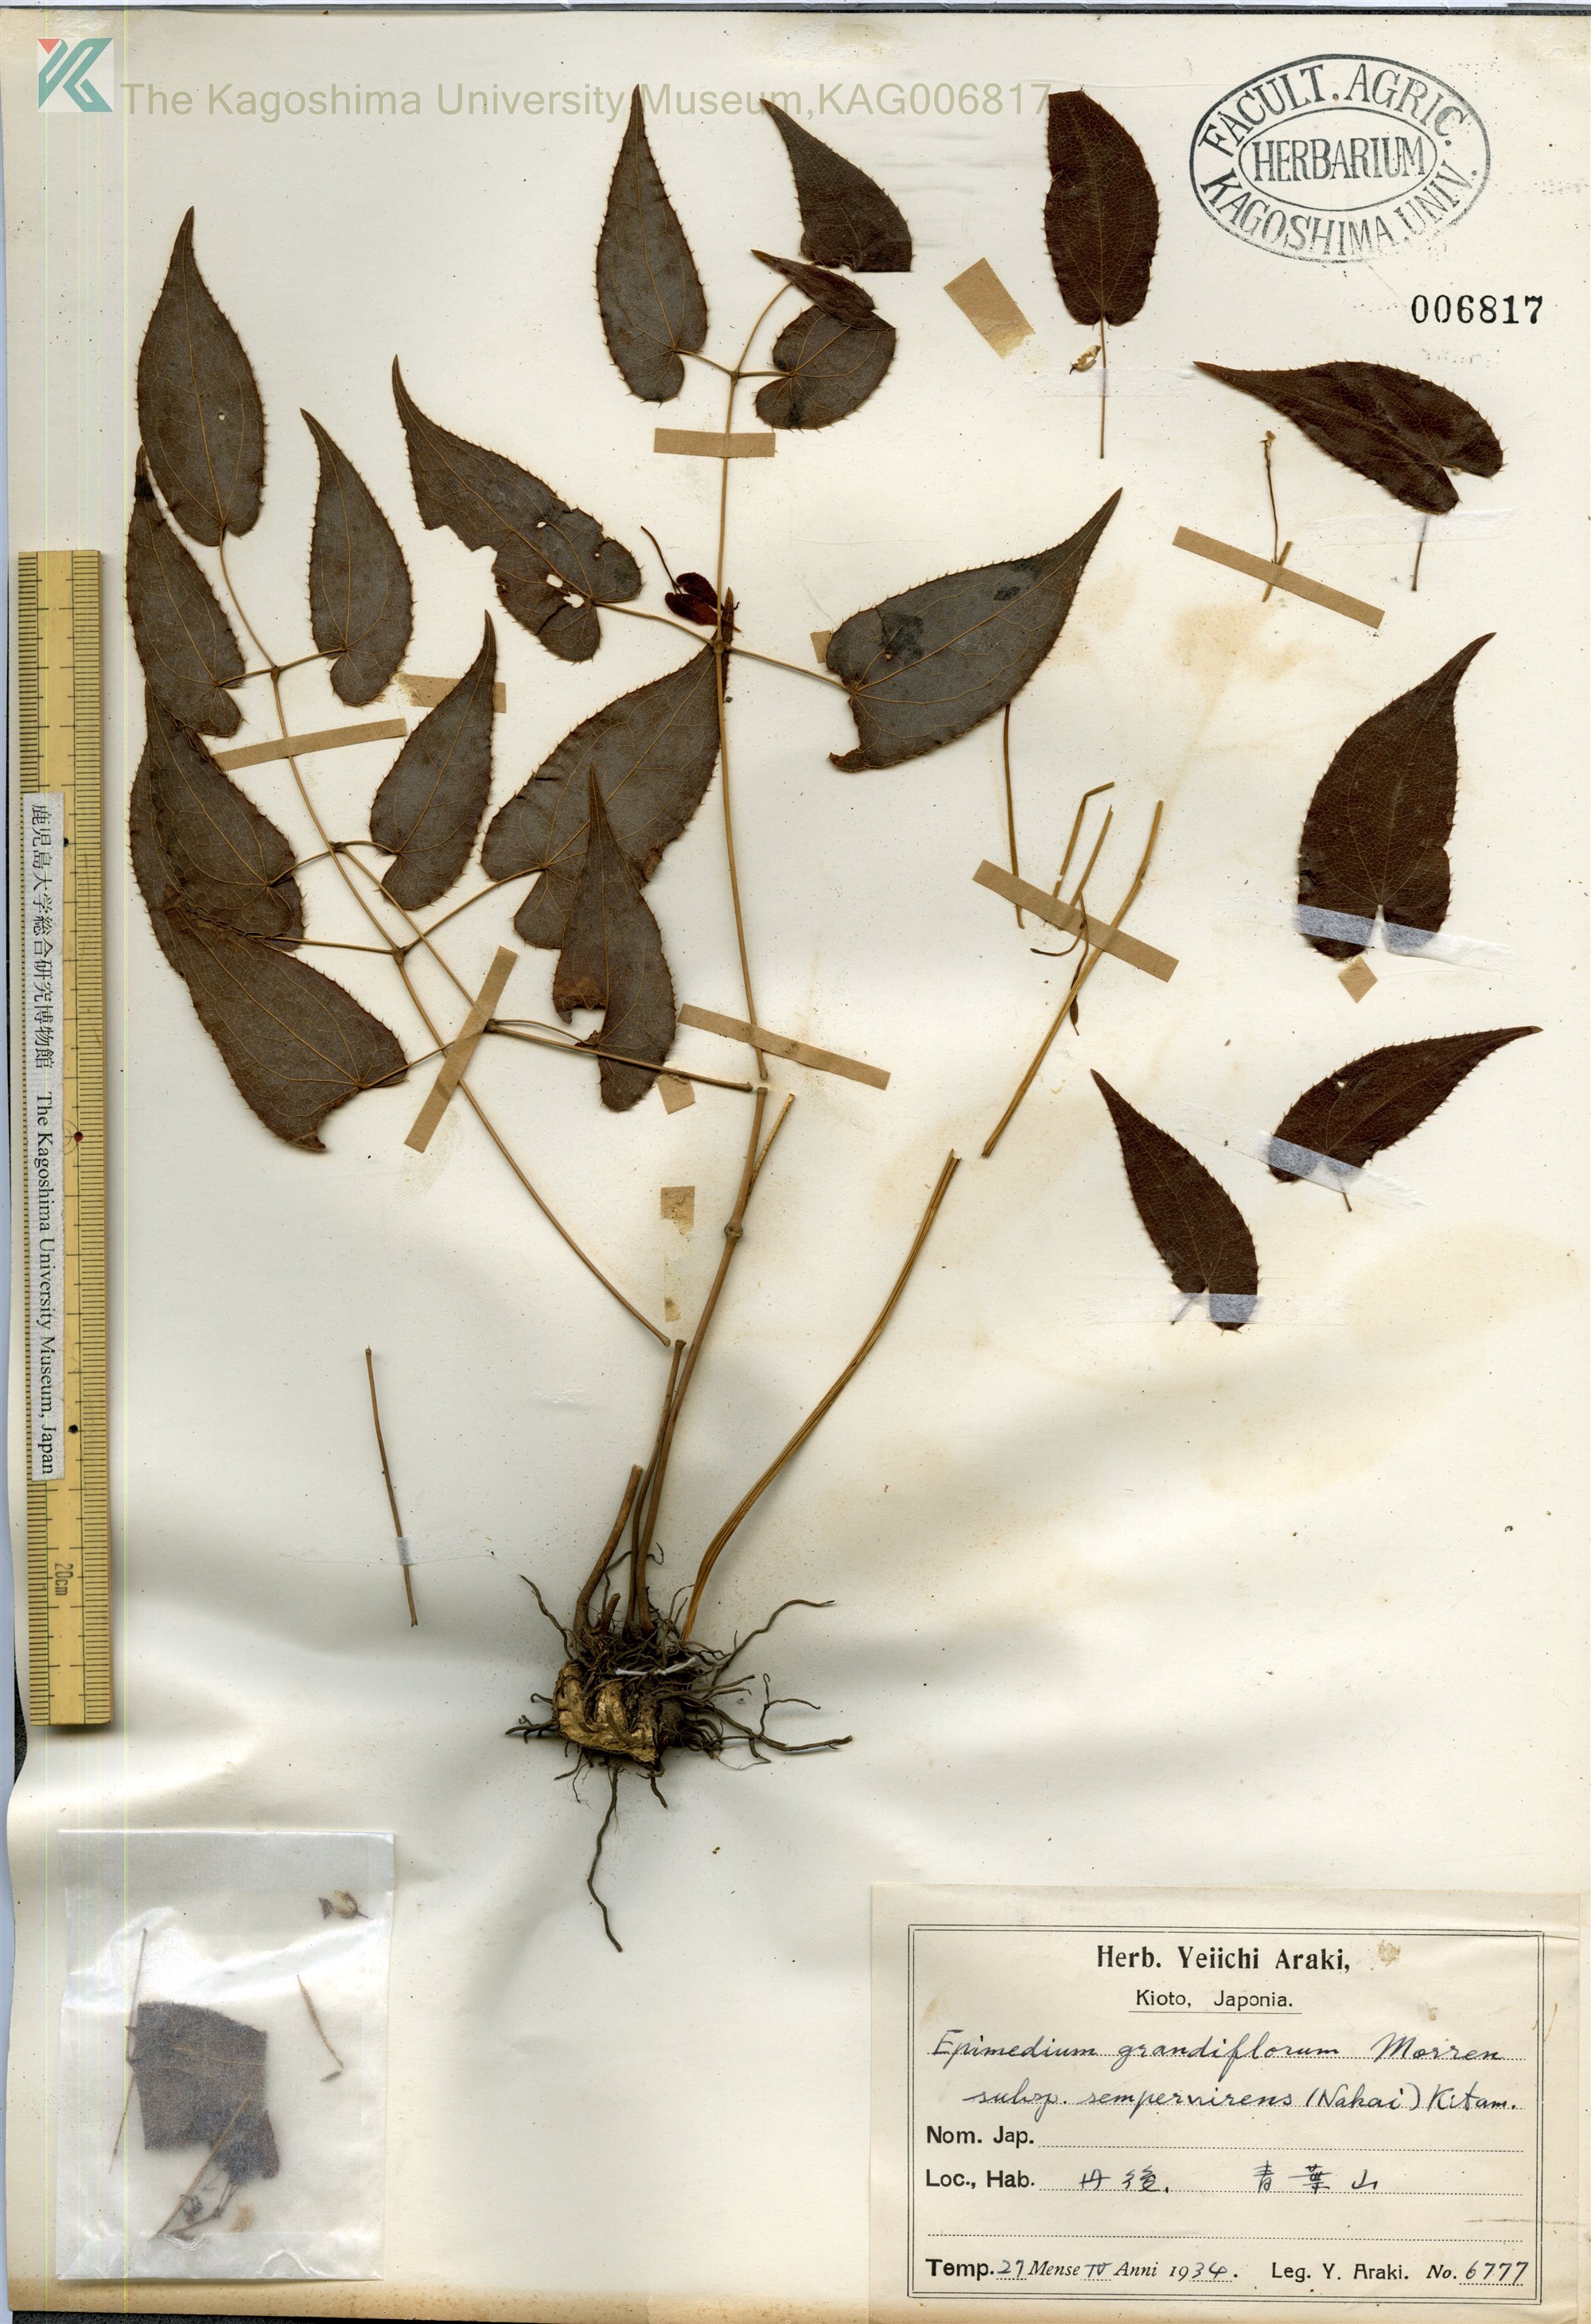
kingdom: Plantae
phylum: Tracheophyta
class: Magnoliopsida
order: Ranunculales
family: Berberidaceae
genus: Epimedium
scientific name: Epimedium grandiflorum
